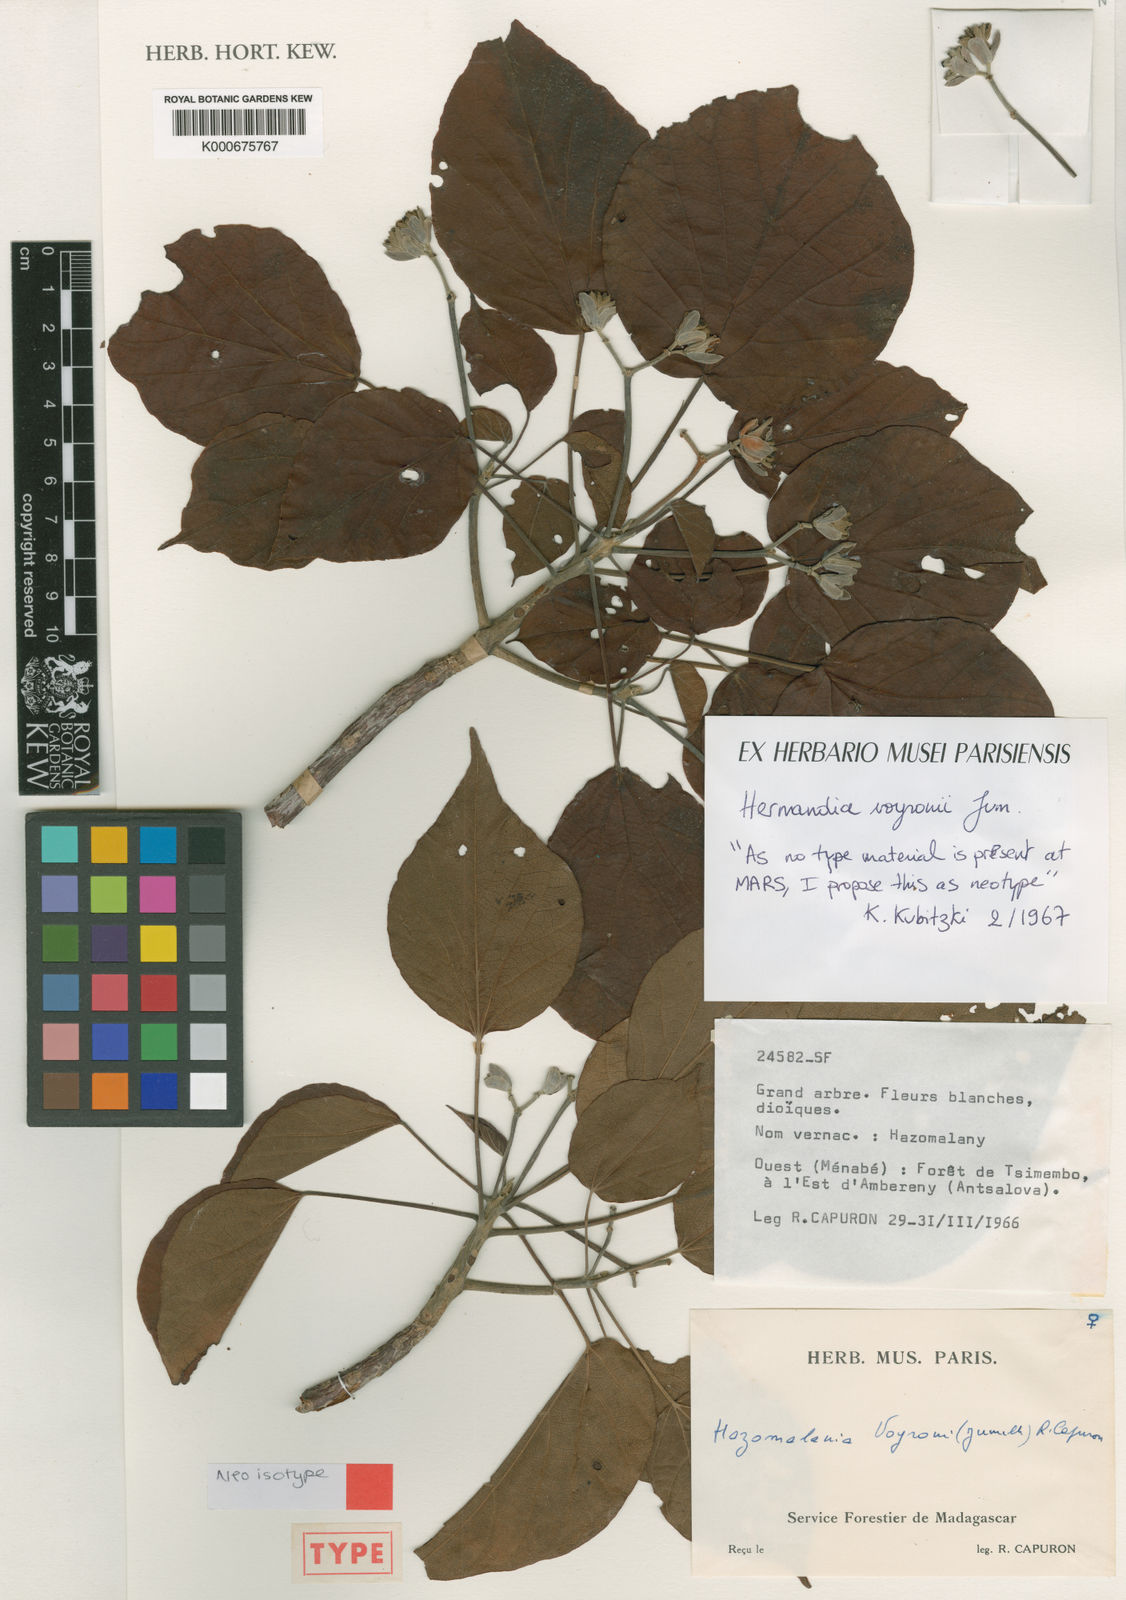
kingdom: Plantae
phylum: Tracheophyta
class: Magnoliopsida
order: Laurales
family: Hernandiaceae
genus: Hazomalania
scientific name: Hazomalania voyronii
